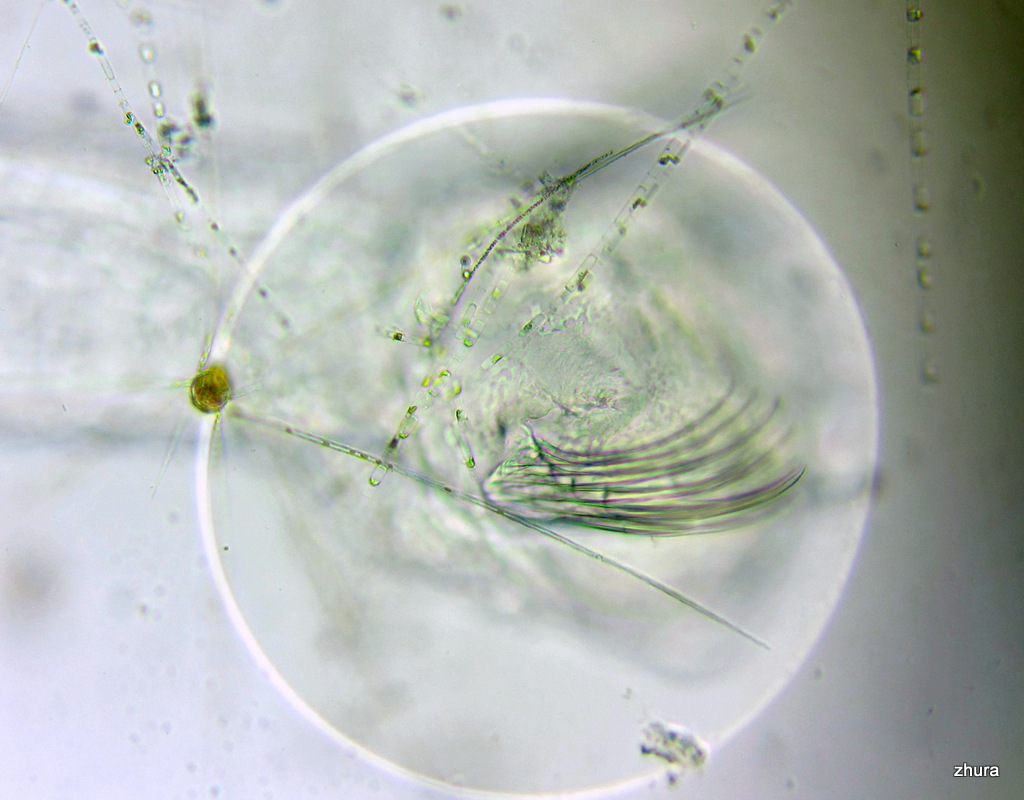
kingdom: Animalia
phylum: Chaetognatha
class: Sagittoidea
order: Aphragmophora
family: Sagittidae
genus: Parasagitta
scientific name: Parasagitta elegans
